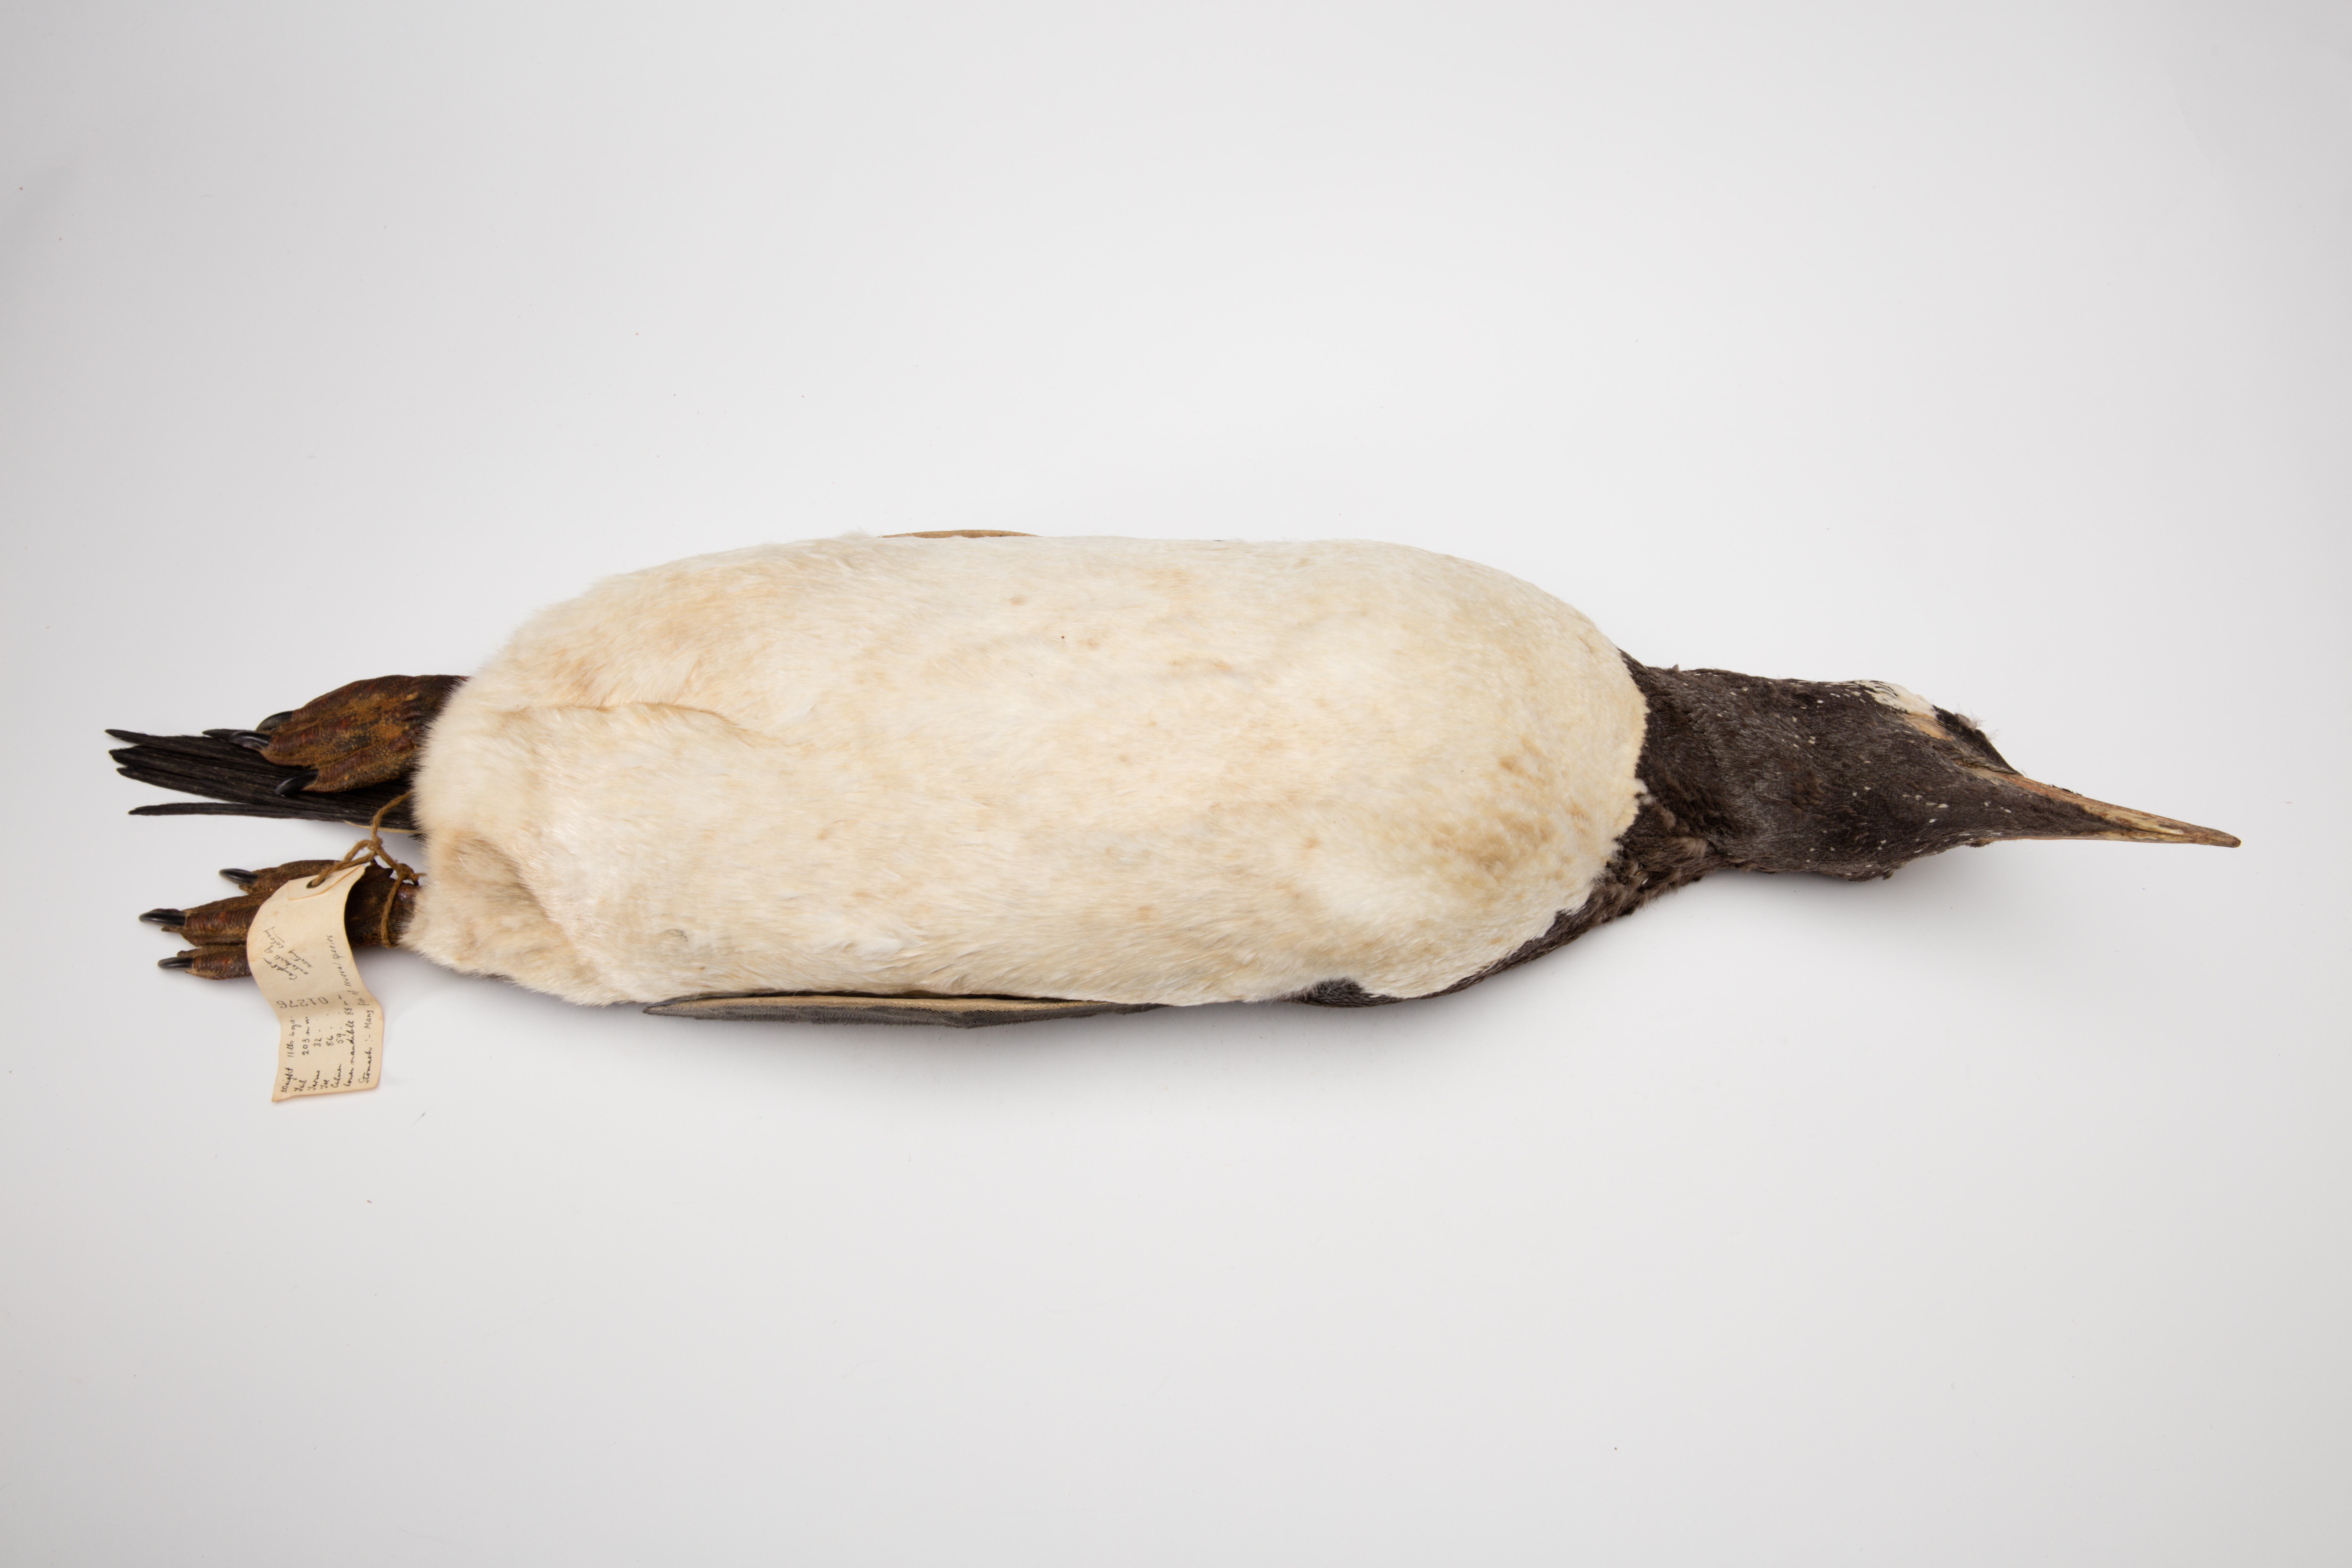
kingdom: Animalia
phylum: Chordata
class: Aves
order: Sphenisciformes
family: Spheniscidae
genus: Pygoscelis
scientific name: Pygoscelis papua
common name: Gentoo penguin
